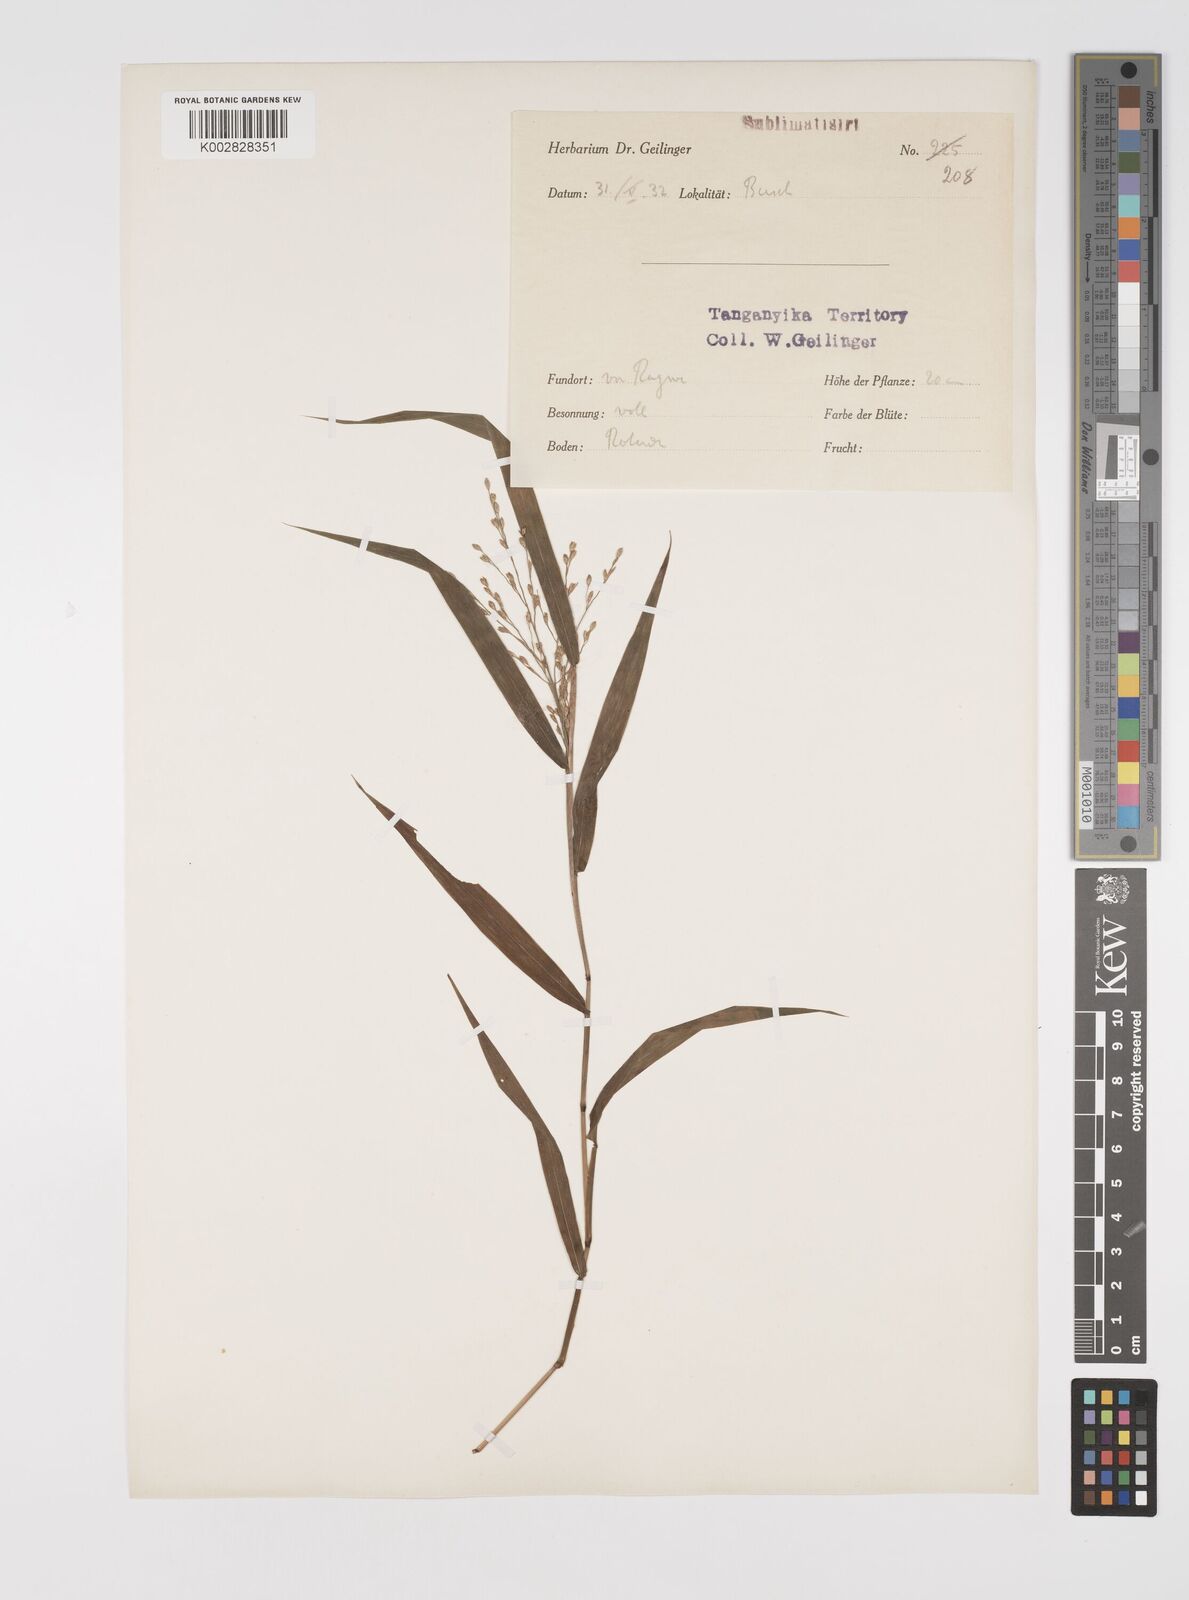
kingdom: Plantae
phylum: Tracheophyta
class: Liliopsida
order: Poales
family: Poaceae
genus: Acroceras
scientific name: Acroceras attenuatum
